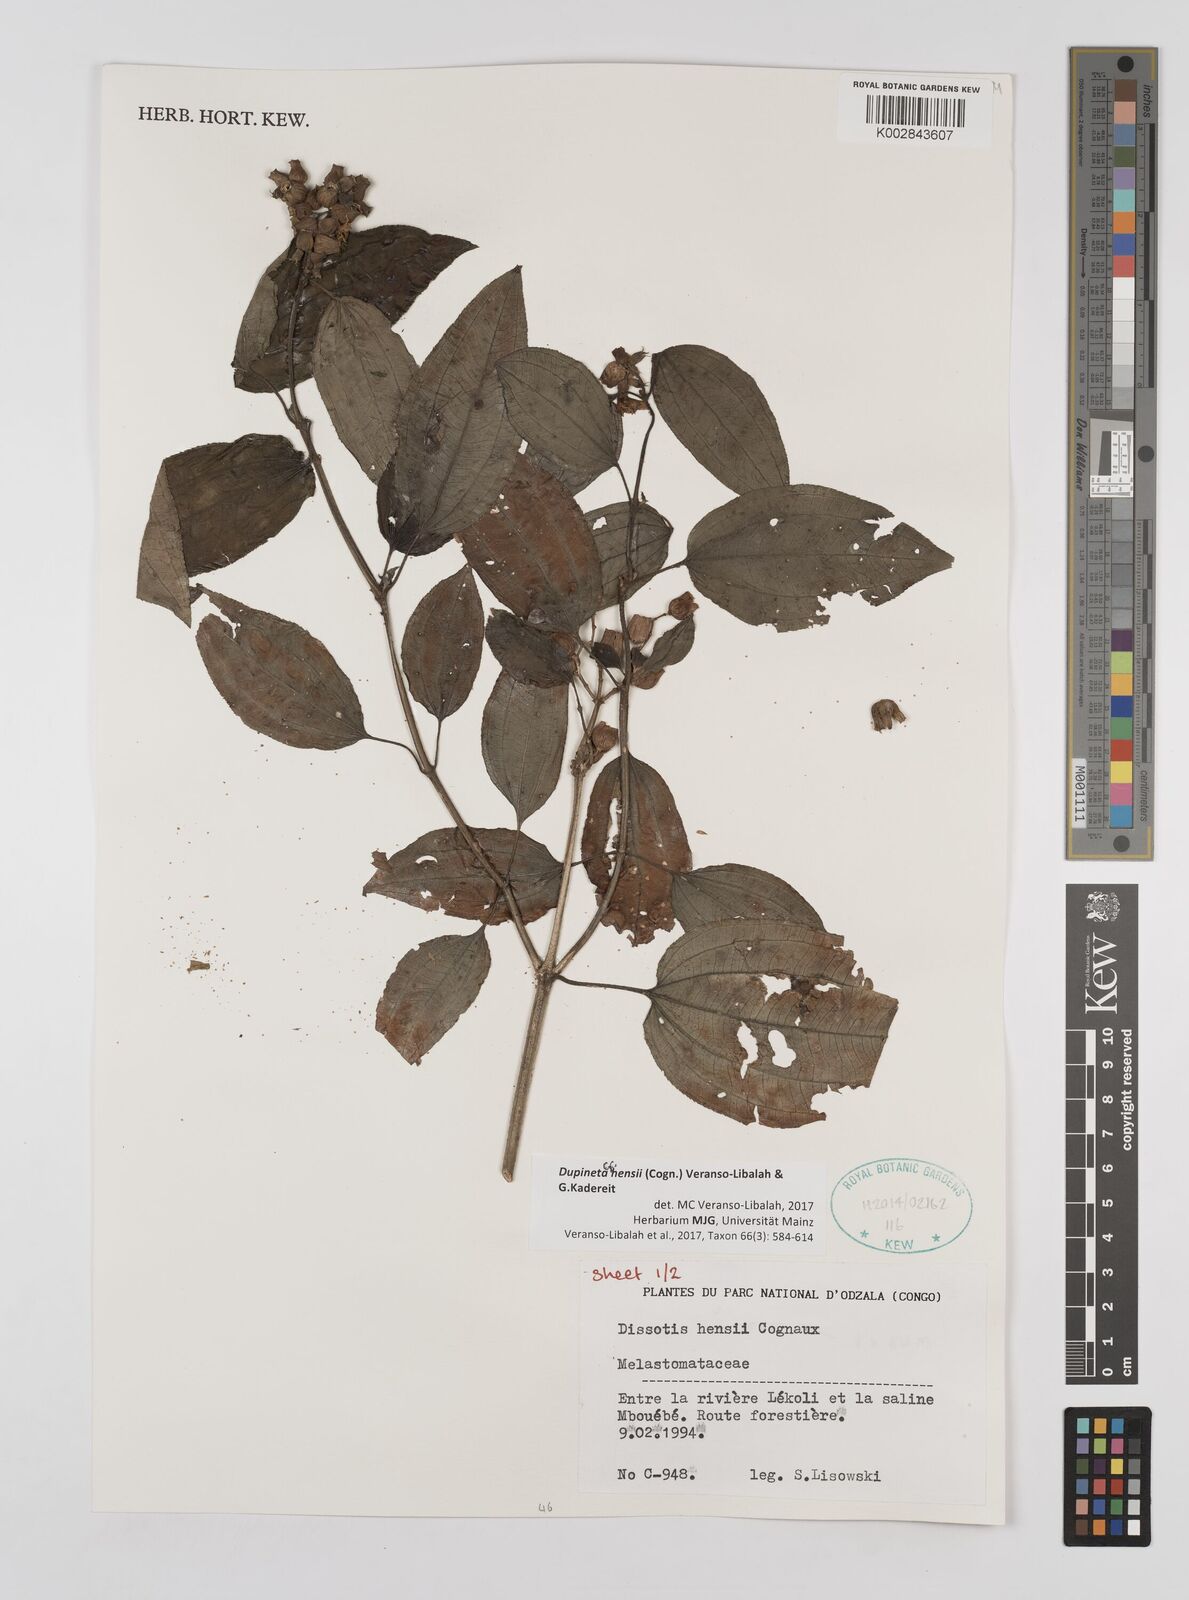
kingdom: Plantae
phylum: Tracheophyta
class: Magnoliopsida
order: Myrtales
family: Melastomataceae
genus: Dupineta
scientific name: Dupineta hensii
